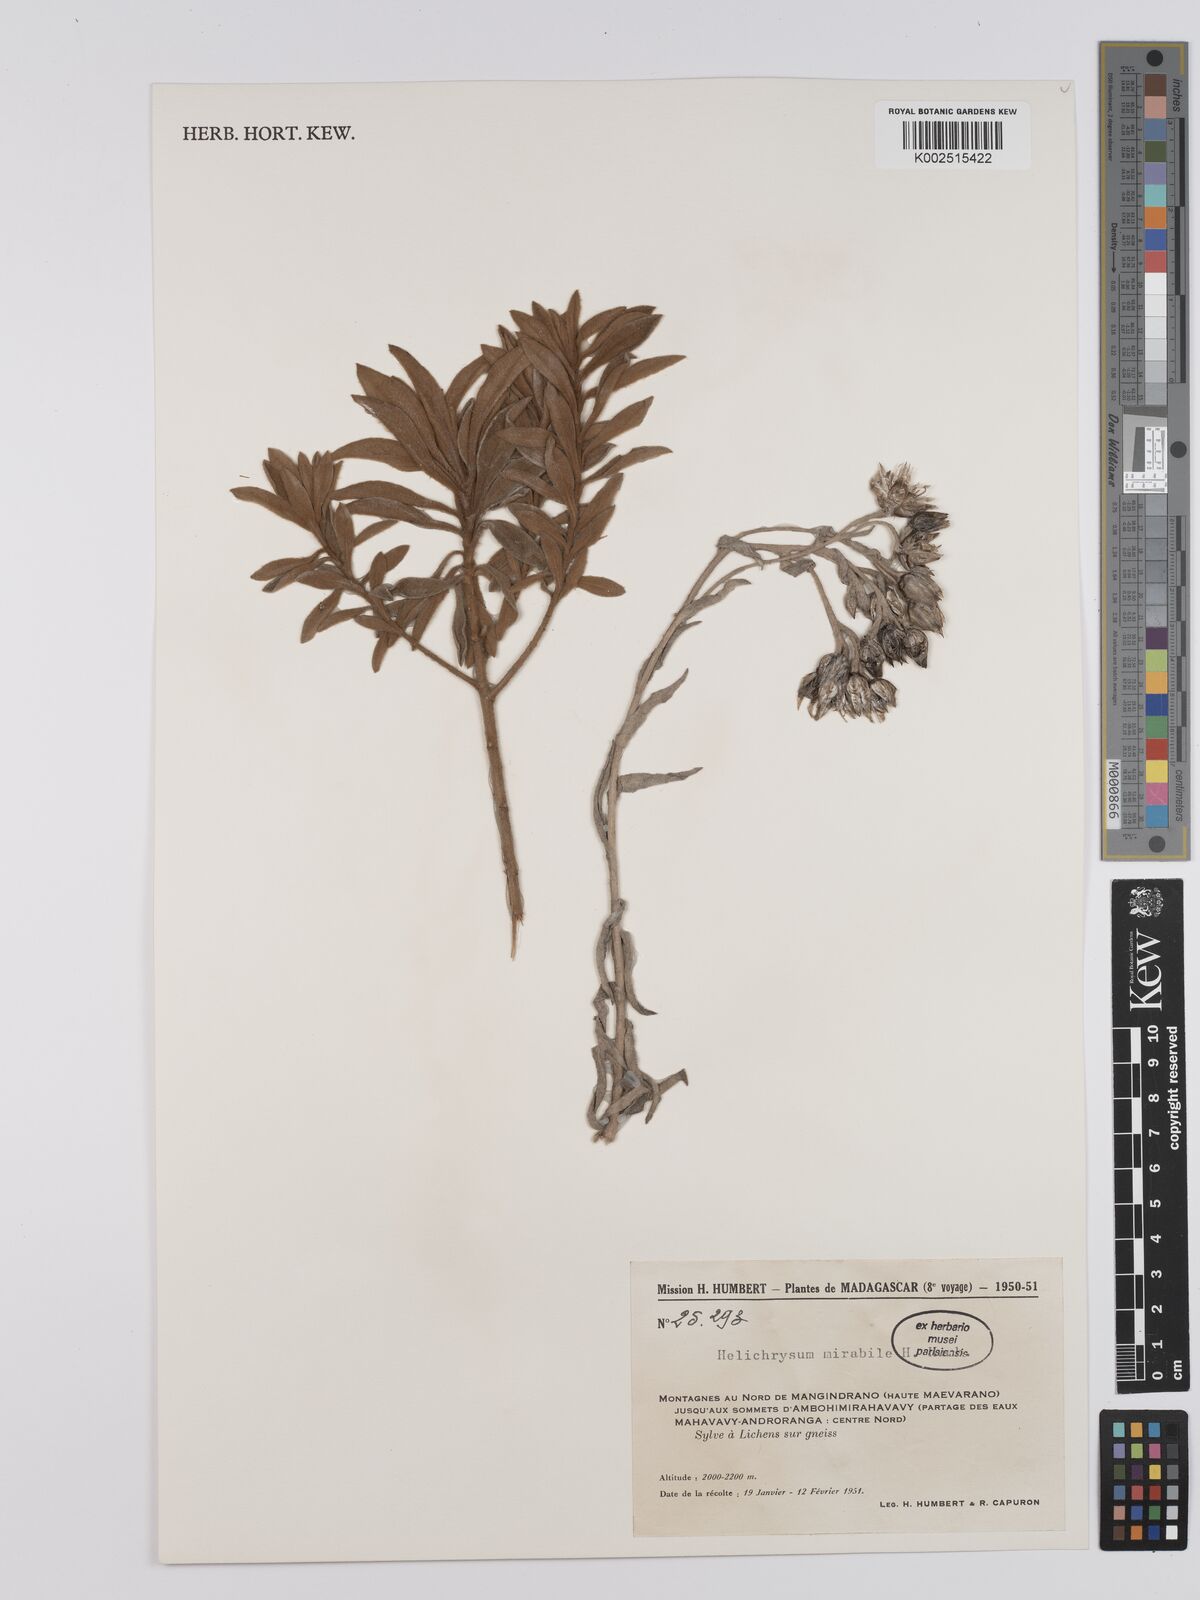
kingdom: Plantae
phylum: Tracheophyta
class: Magnoliopsida
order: Asterales
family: Asteraceae
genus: Helichrysum
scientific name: Helichrysum mirabile
